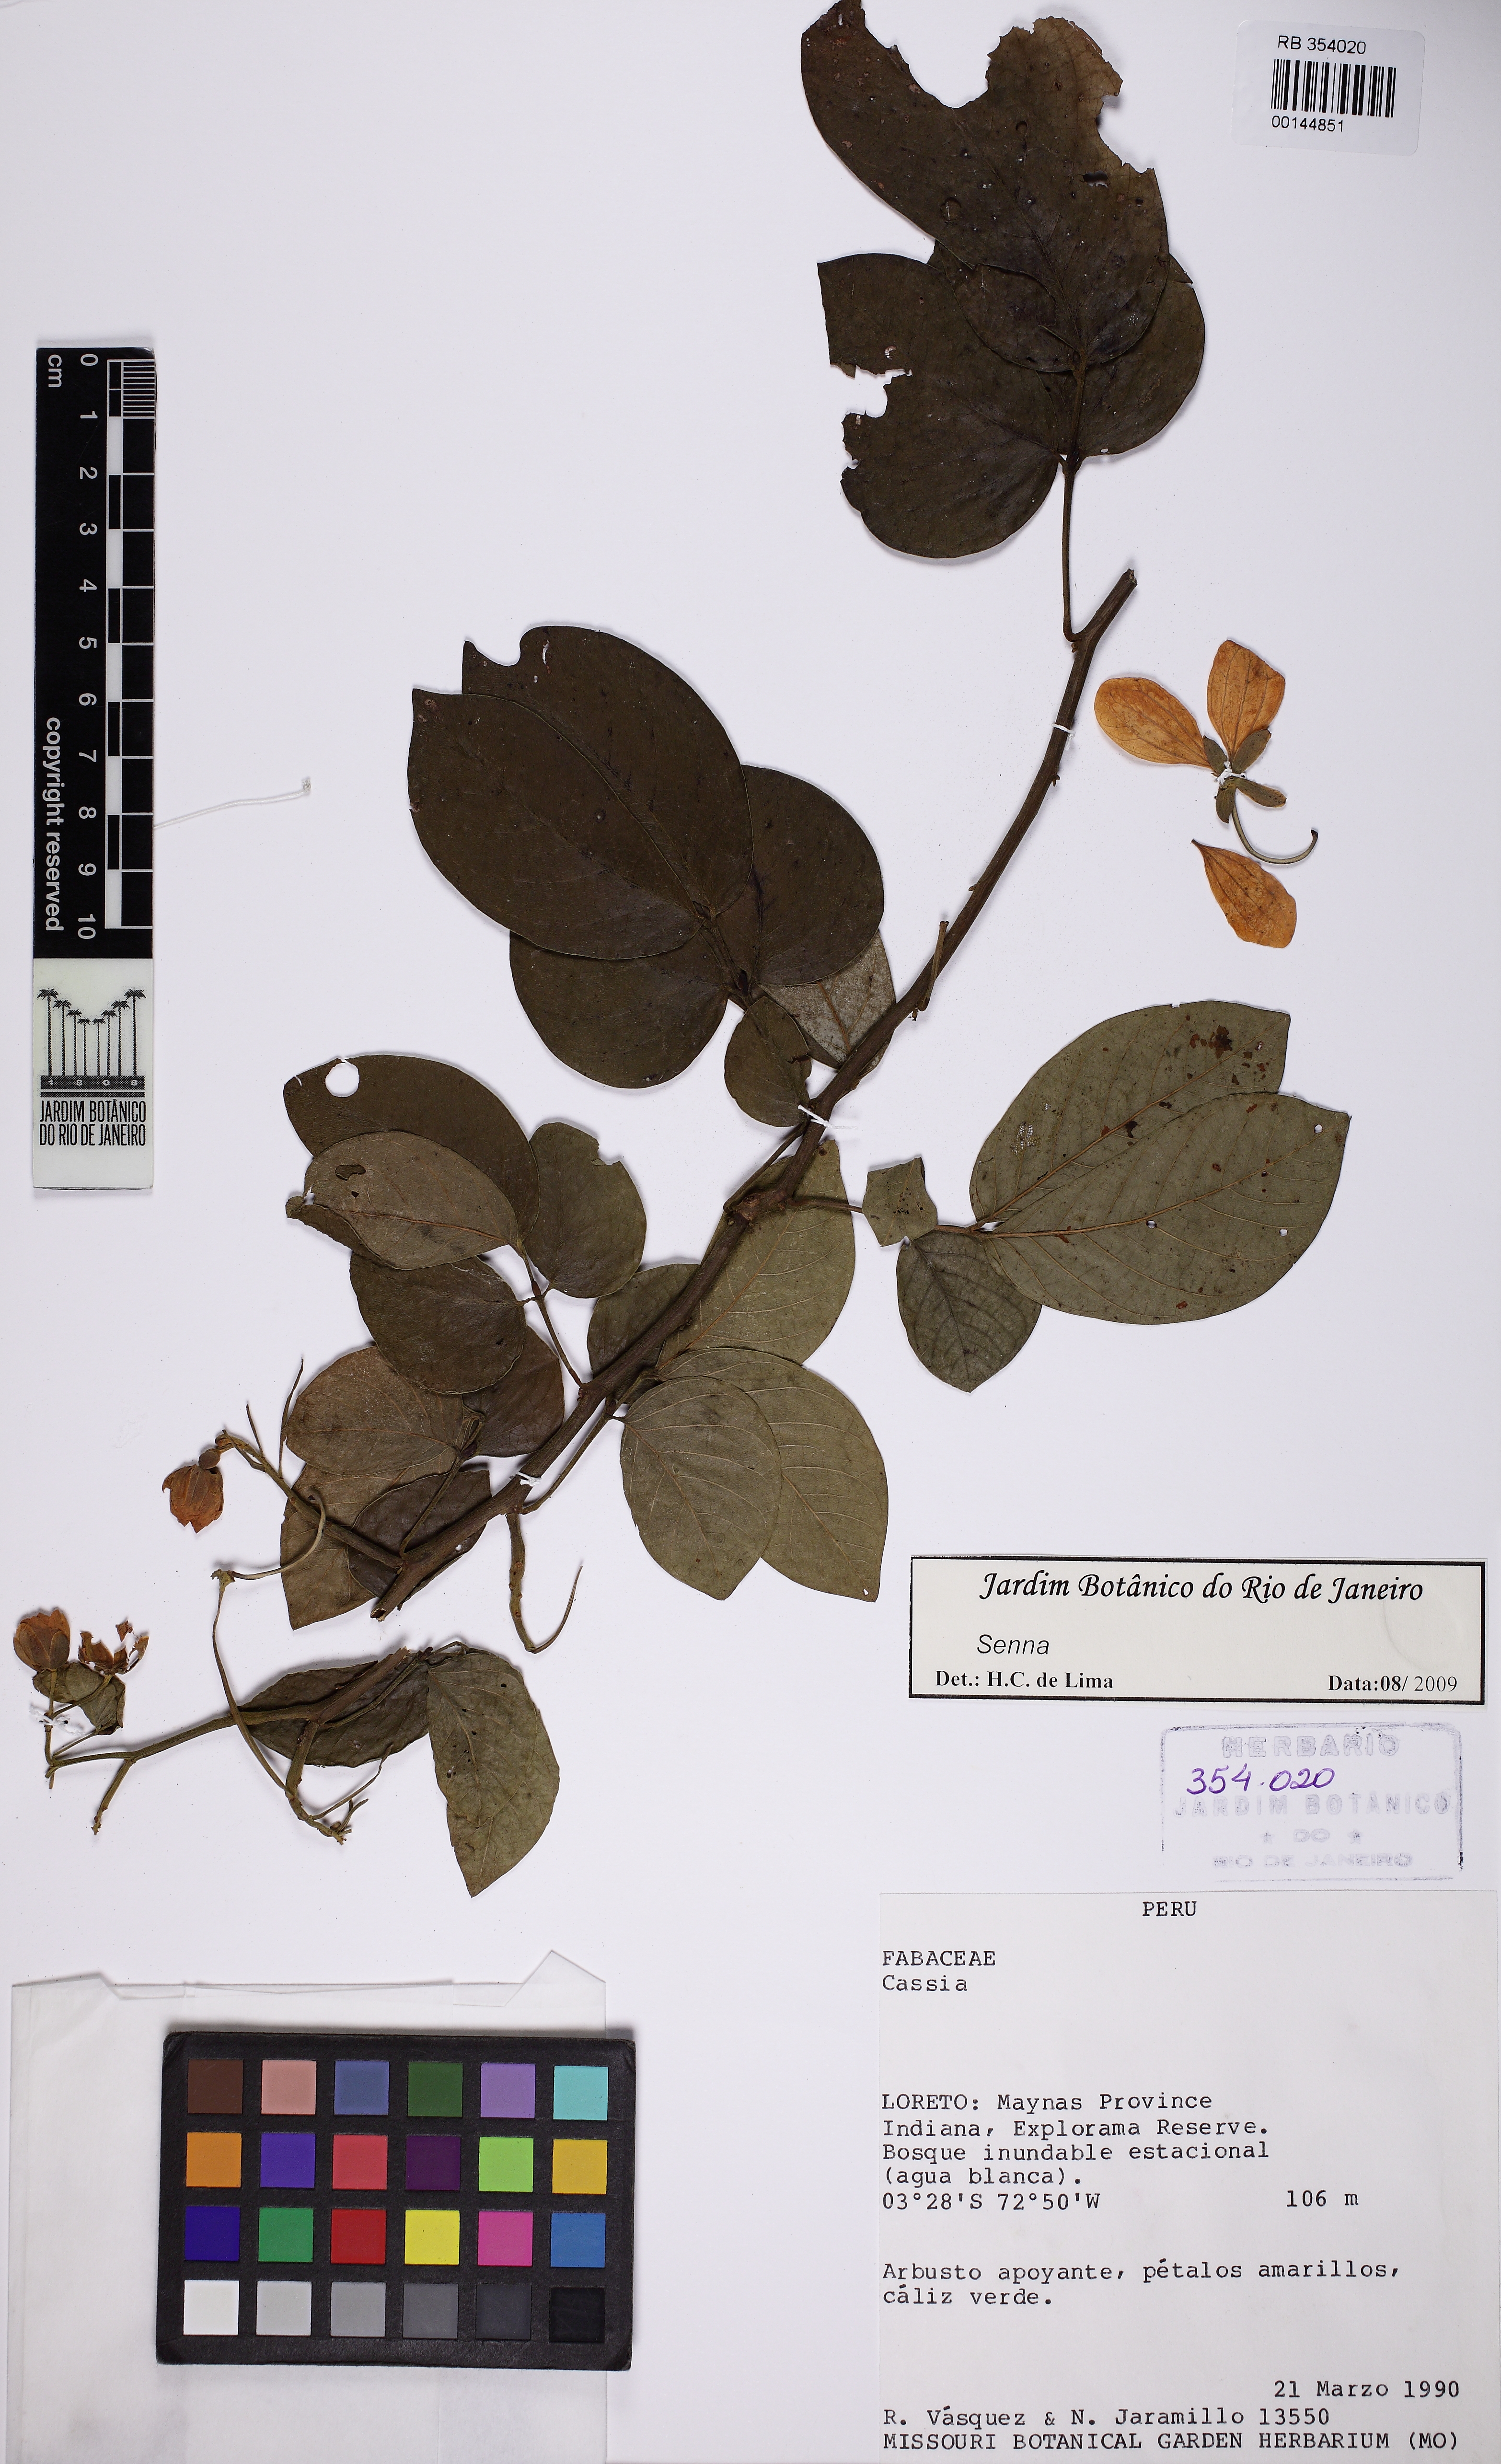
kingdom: Plantae
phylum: Tracheophyta
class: Magnoliopsida
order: Fabales
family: Fabaceae
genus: Senna
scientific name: Senna
